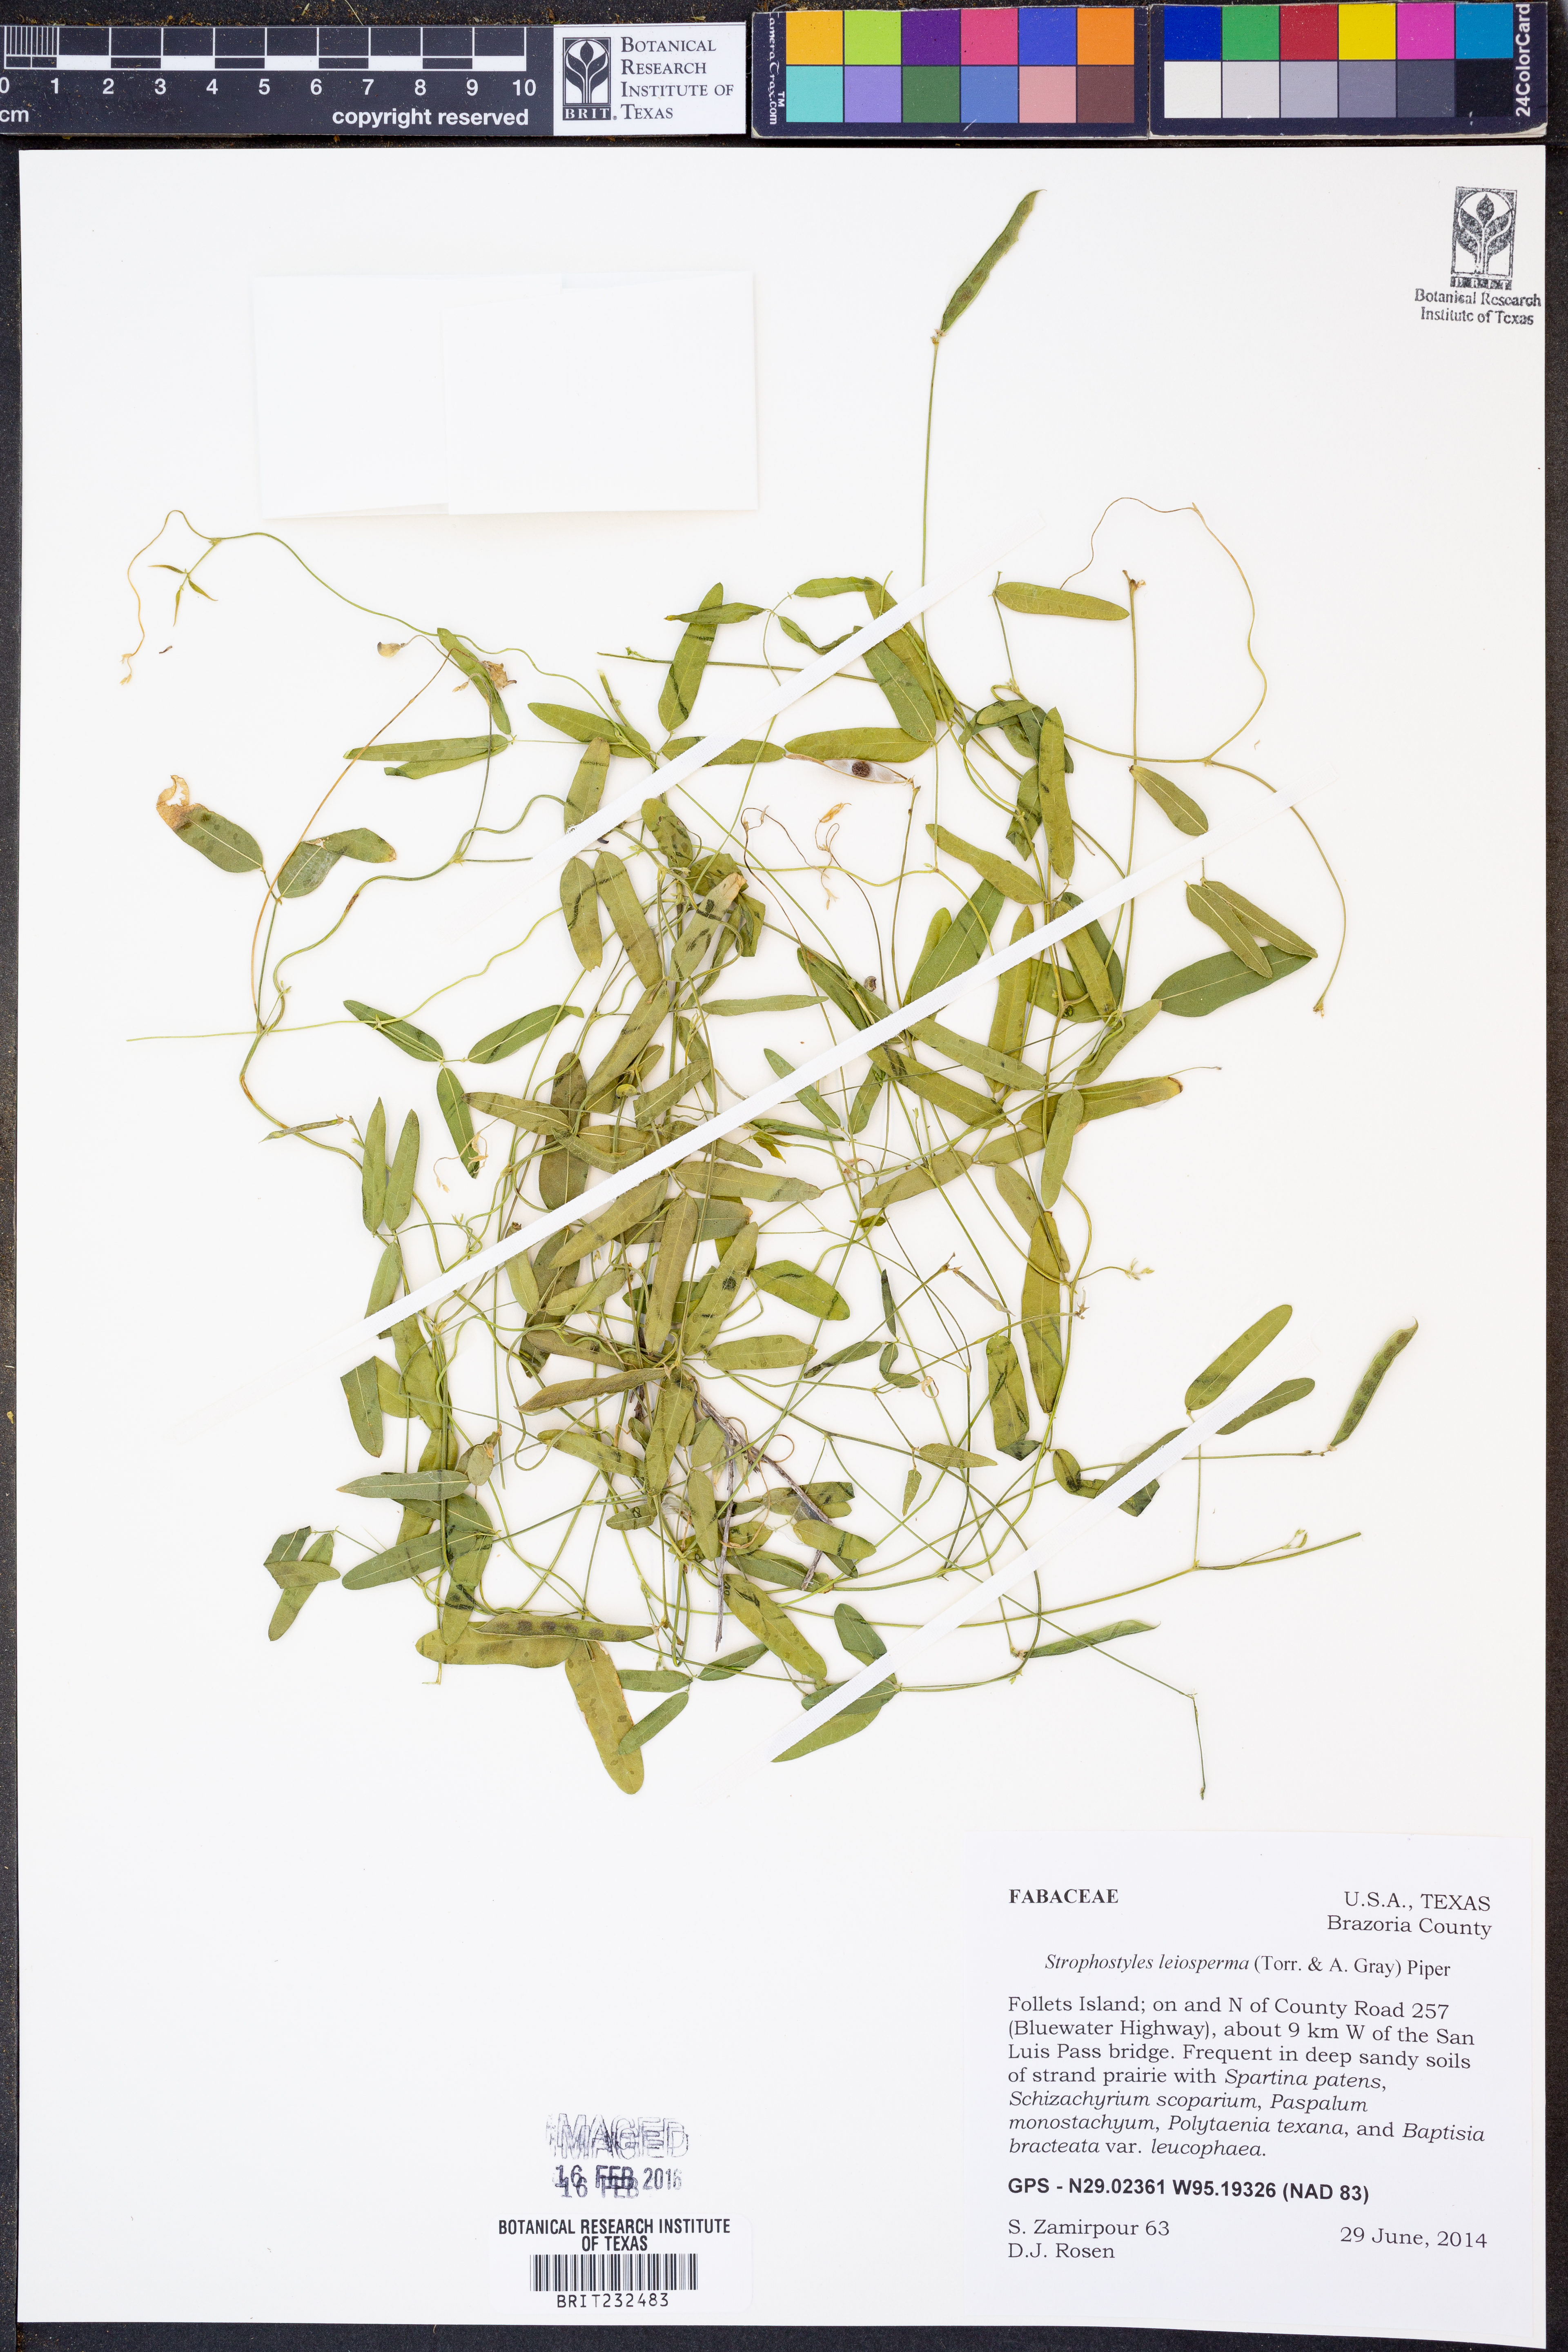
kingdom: Plantae
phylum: Tracheophyta
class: Magnoliopsida
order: Fabales
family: Fabaceae
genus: Strophostyles
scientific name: Strophostyles leiosperma
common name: Smooth-seed wild bean
